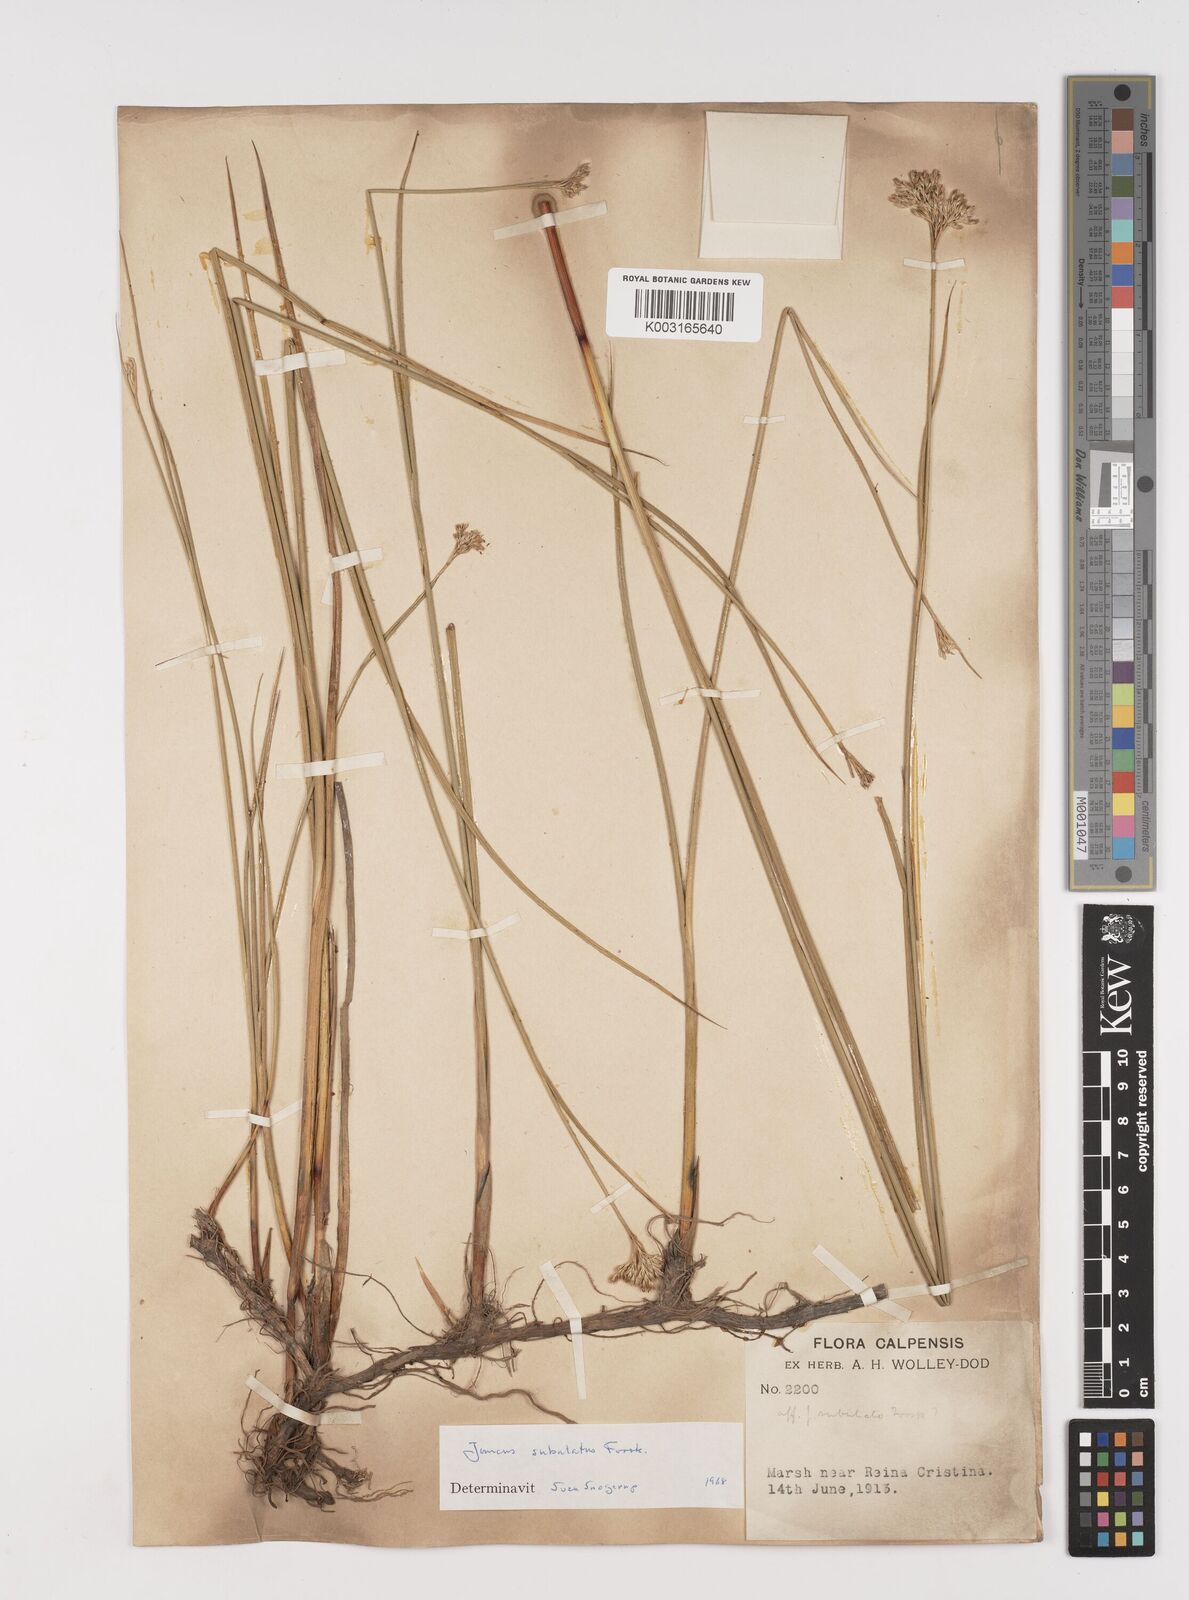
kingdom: Plantae
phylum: Tracheophyta
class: Liliopsida
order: Poales
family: Juncaceae
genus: Juncus
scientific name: Juncus subulatus
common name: Somerset rush
